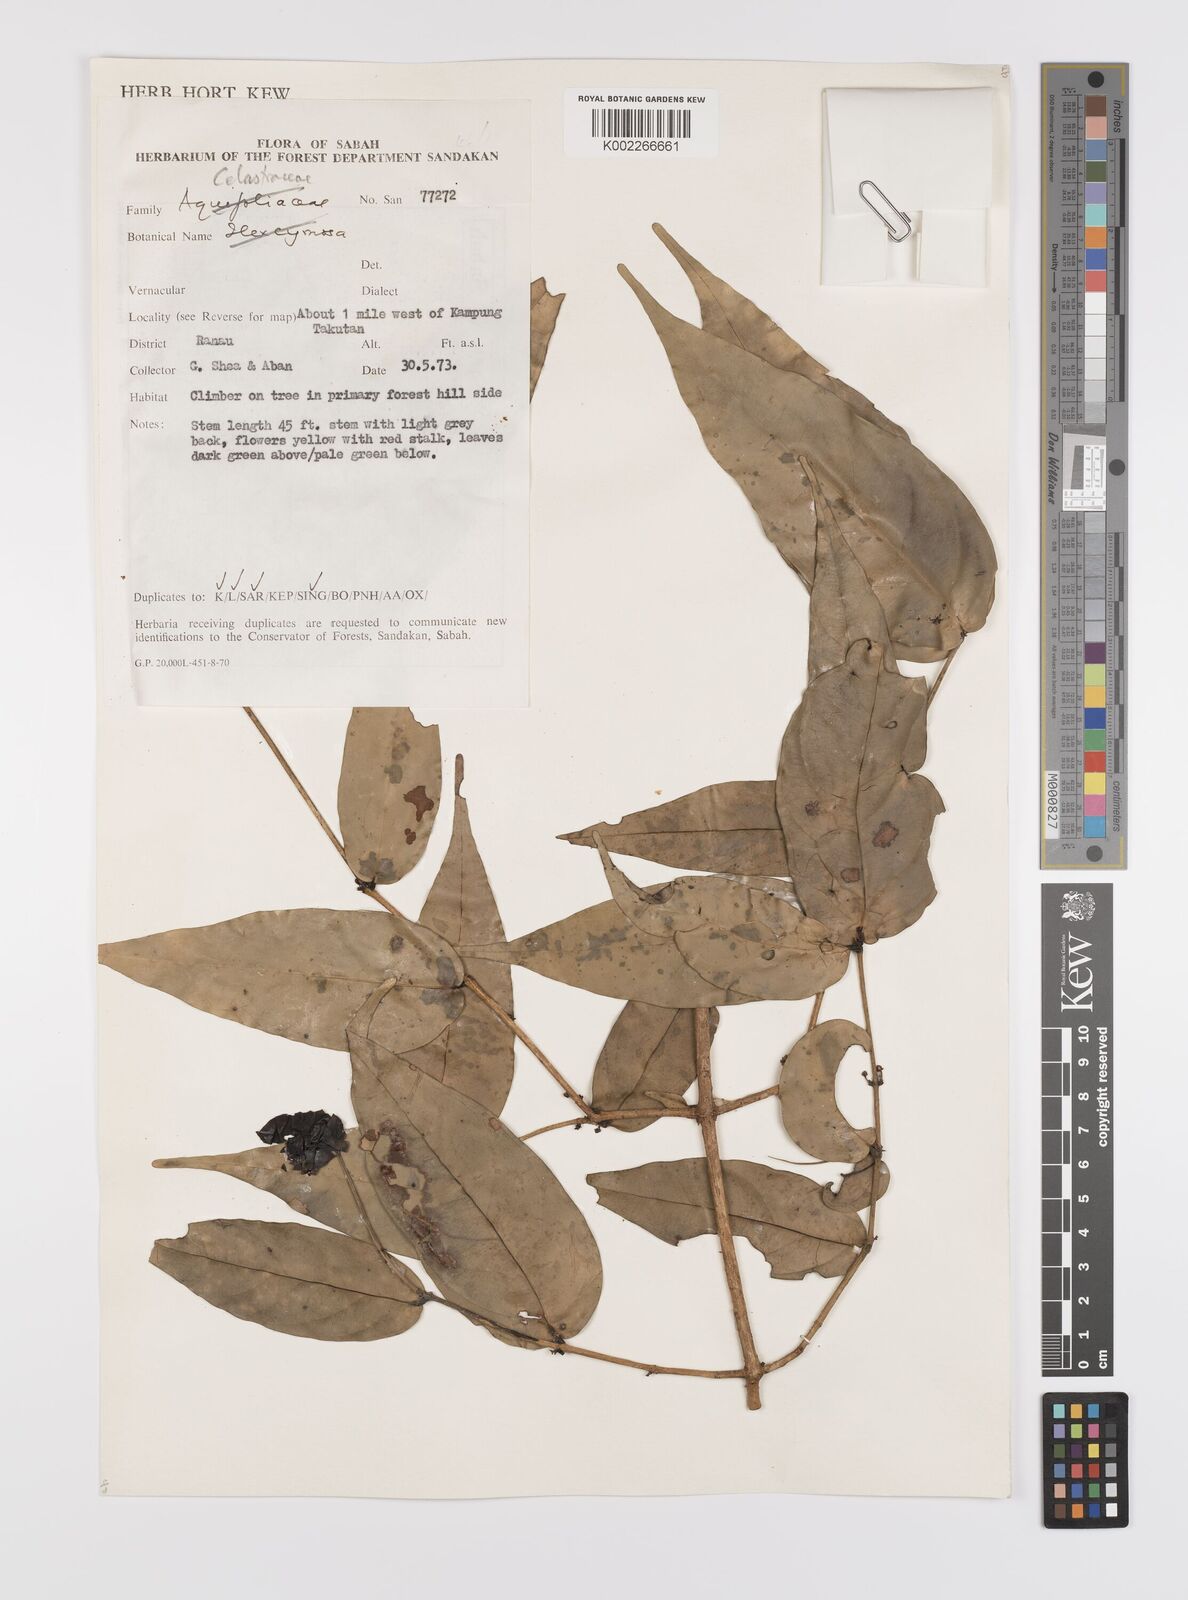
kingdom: Plantae
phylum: Tracheophyta
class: Magnoliopsida
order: Celastrales
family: Celastraceae
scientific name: Celastraceae
